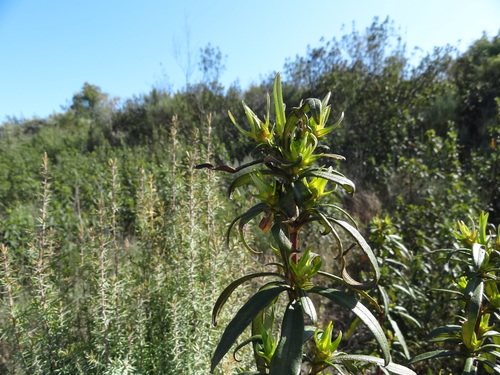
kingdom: Plantae
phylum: Tracheophyta
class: Magnoliopsida
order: Malvales
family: Cistaceae
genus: Cistus
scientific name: Cistus ladanifer
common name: Common gum cistus
